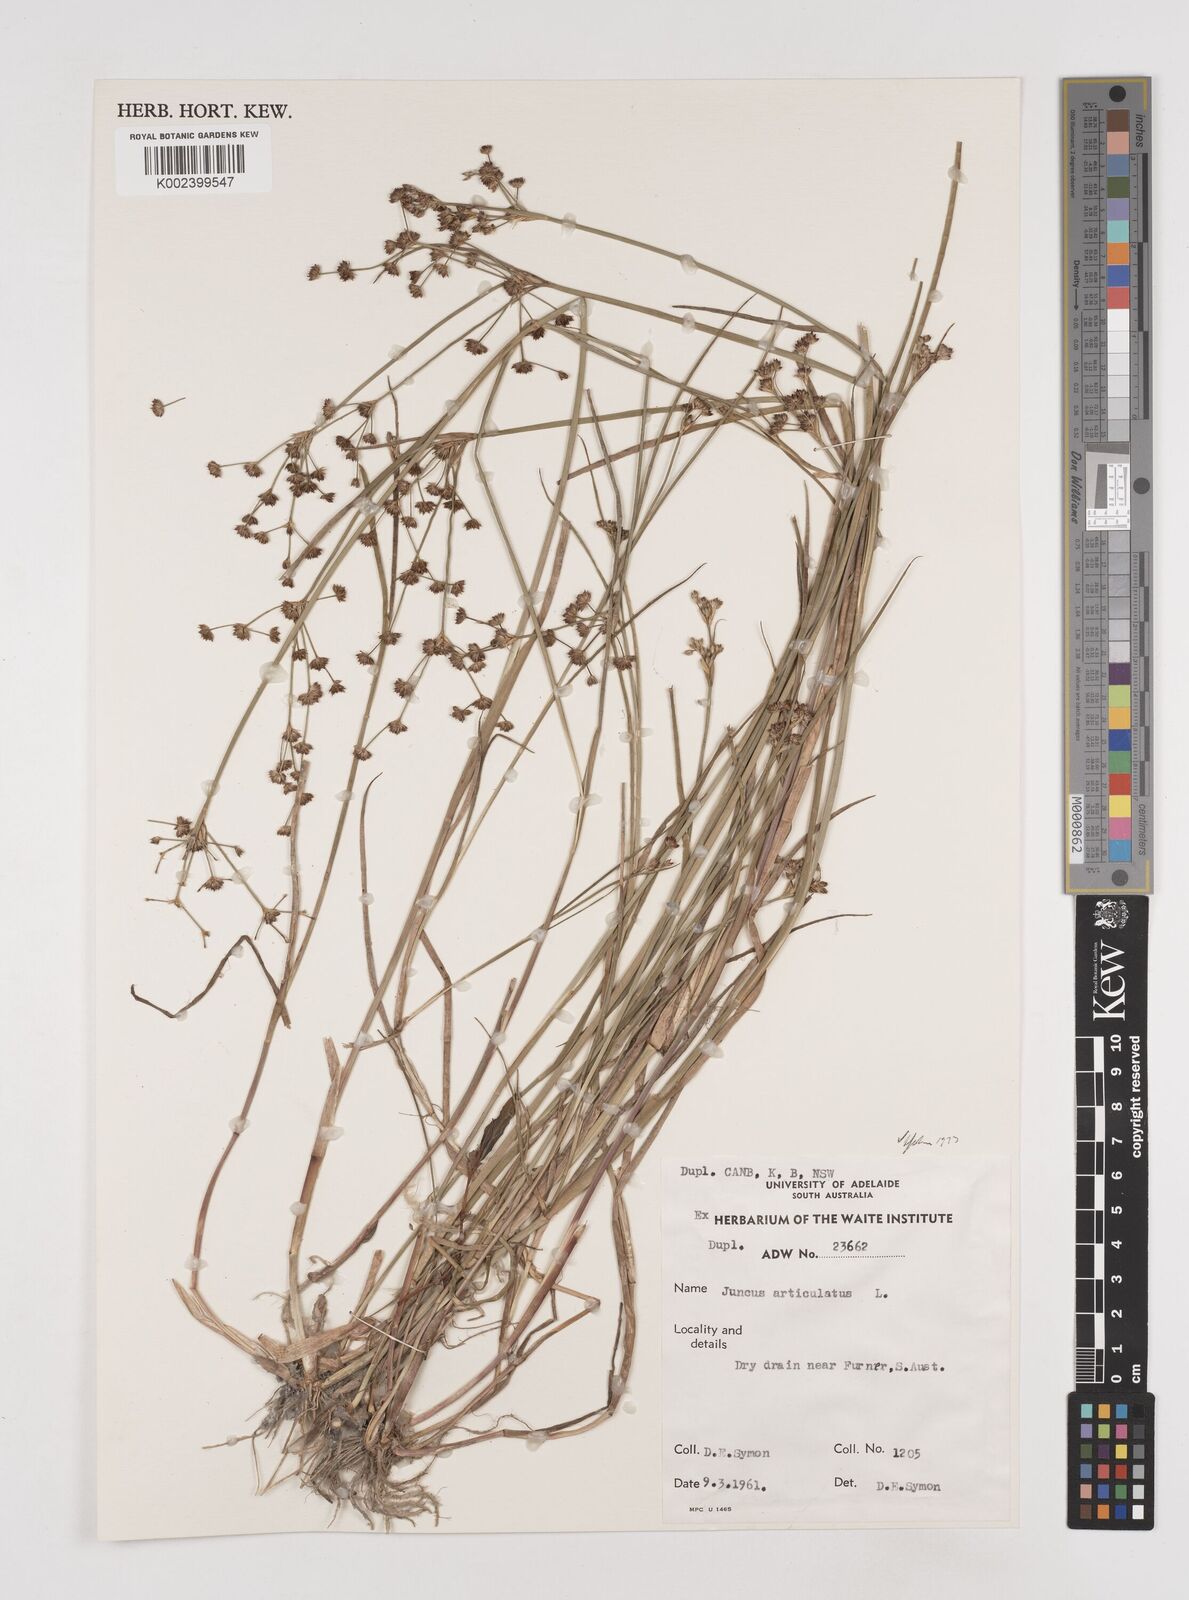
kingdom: Plantae
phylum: Tracheophyta
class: Liliopsida
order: Poales
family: Juncaceae
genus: Juncus
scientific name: Juncus articulatus
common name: Jointed rush
